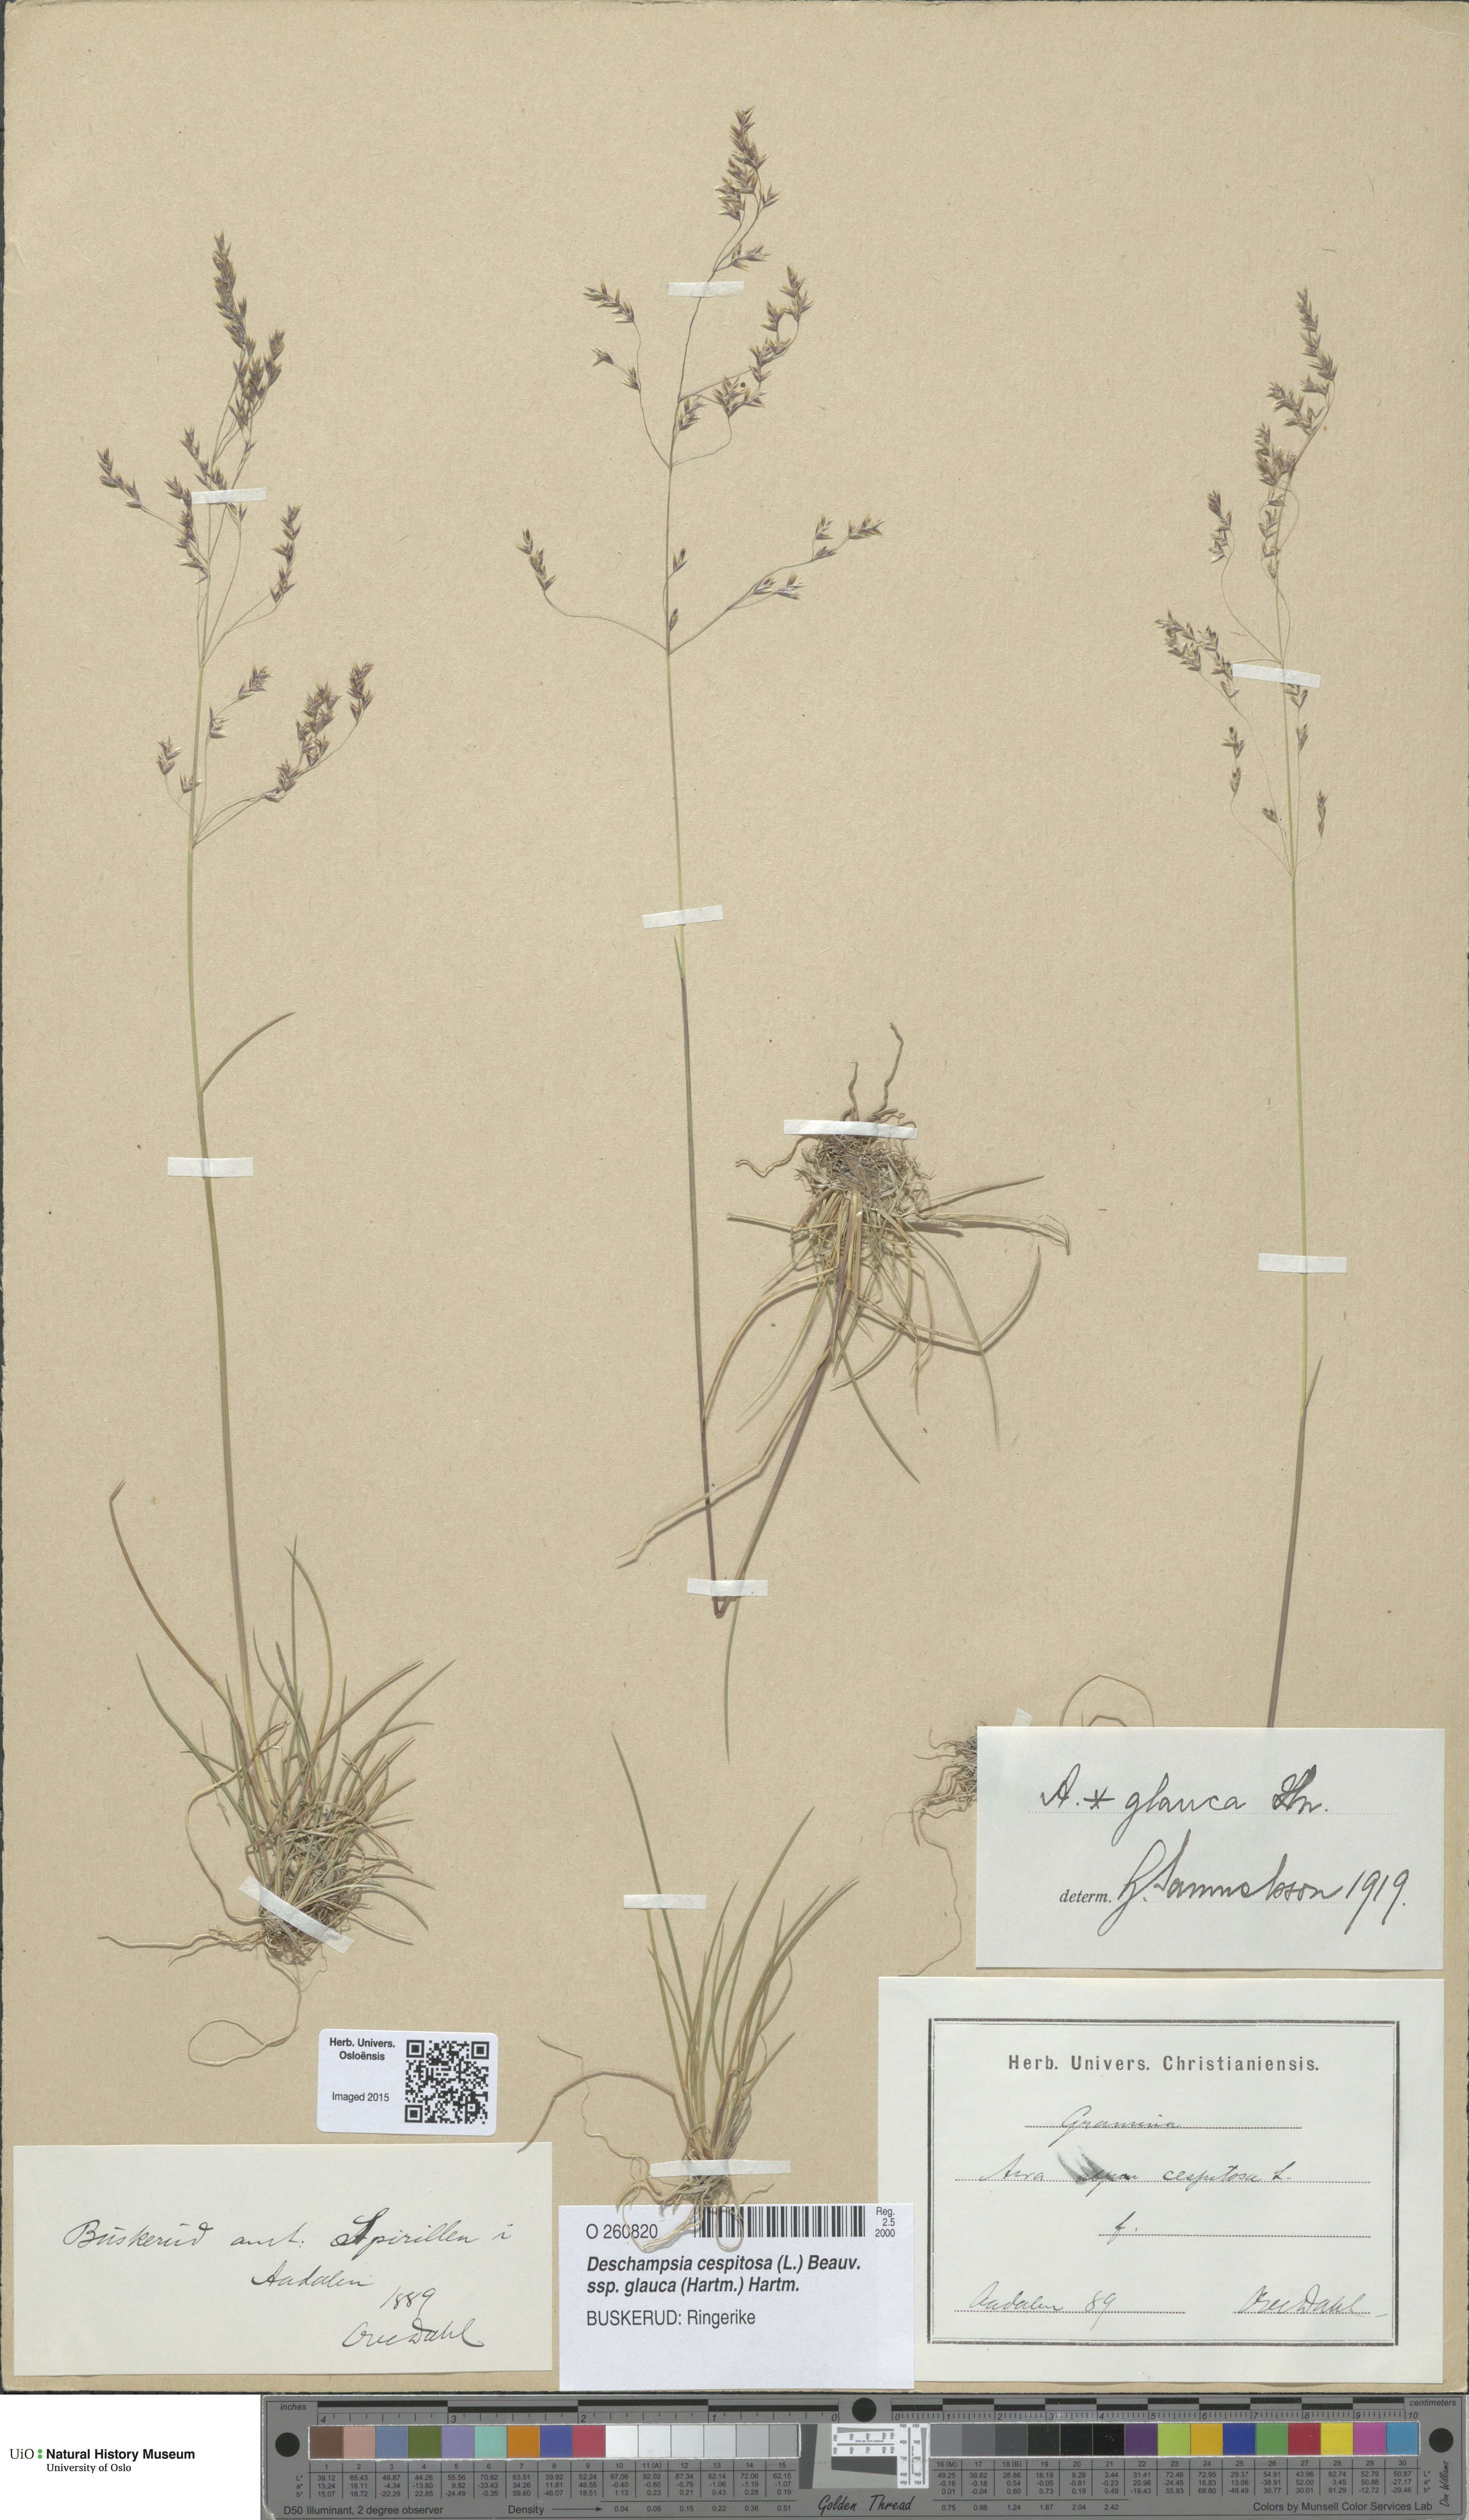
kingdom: Plantae
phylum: Tracheophyta
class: Liliopsida
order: Poales
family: Poaceae
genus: Deschampsia
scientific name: Deschampsia cespitosa
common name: Tufted hair-grass
